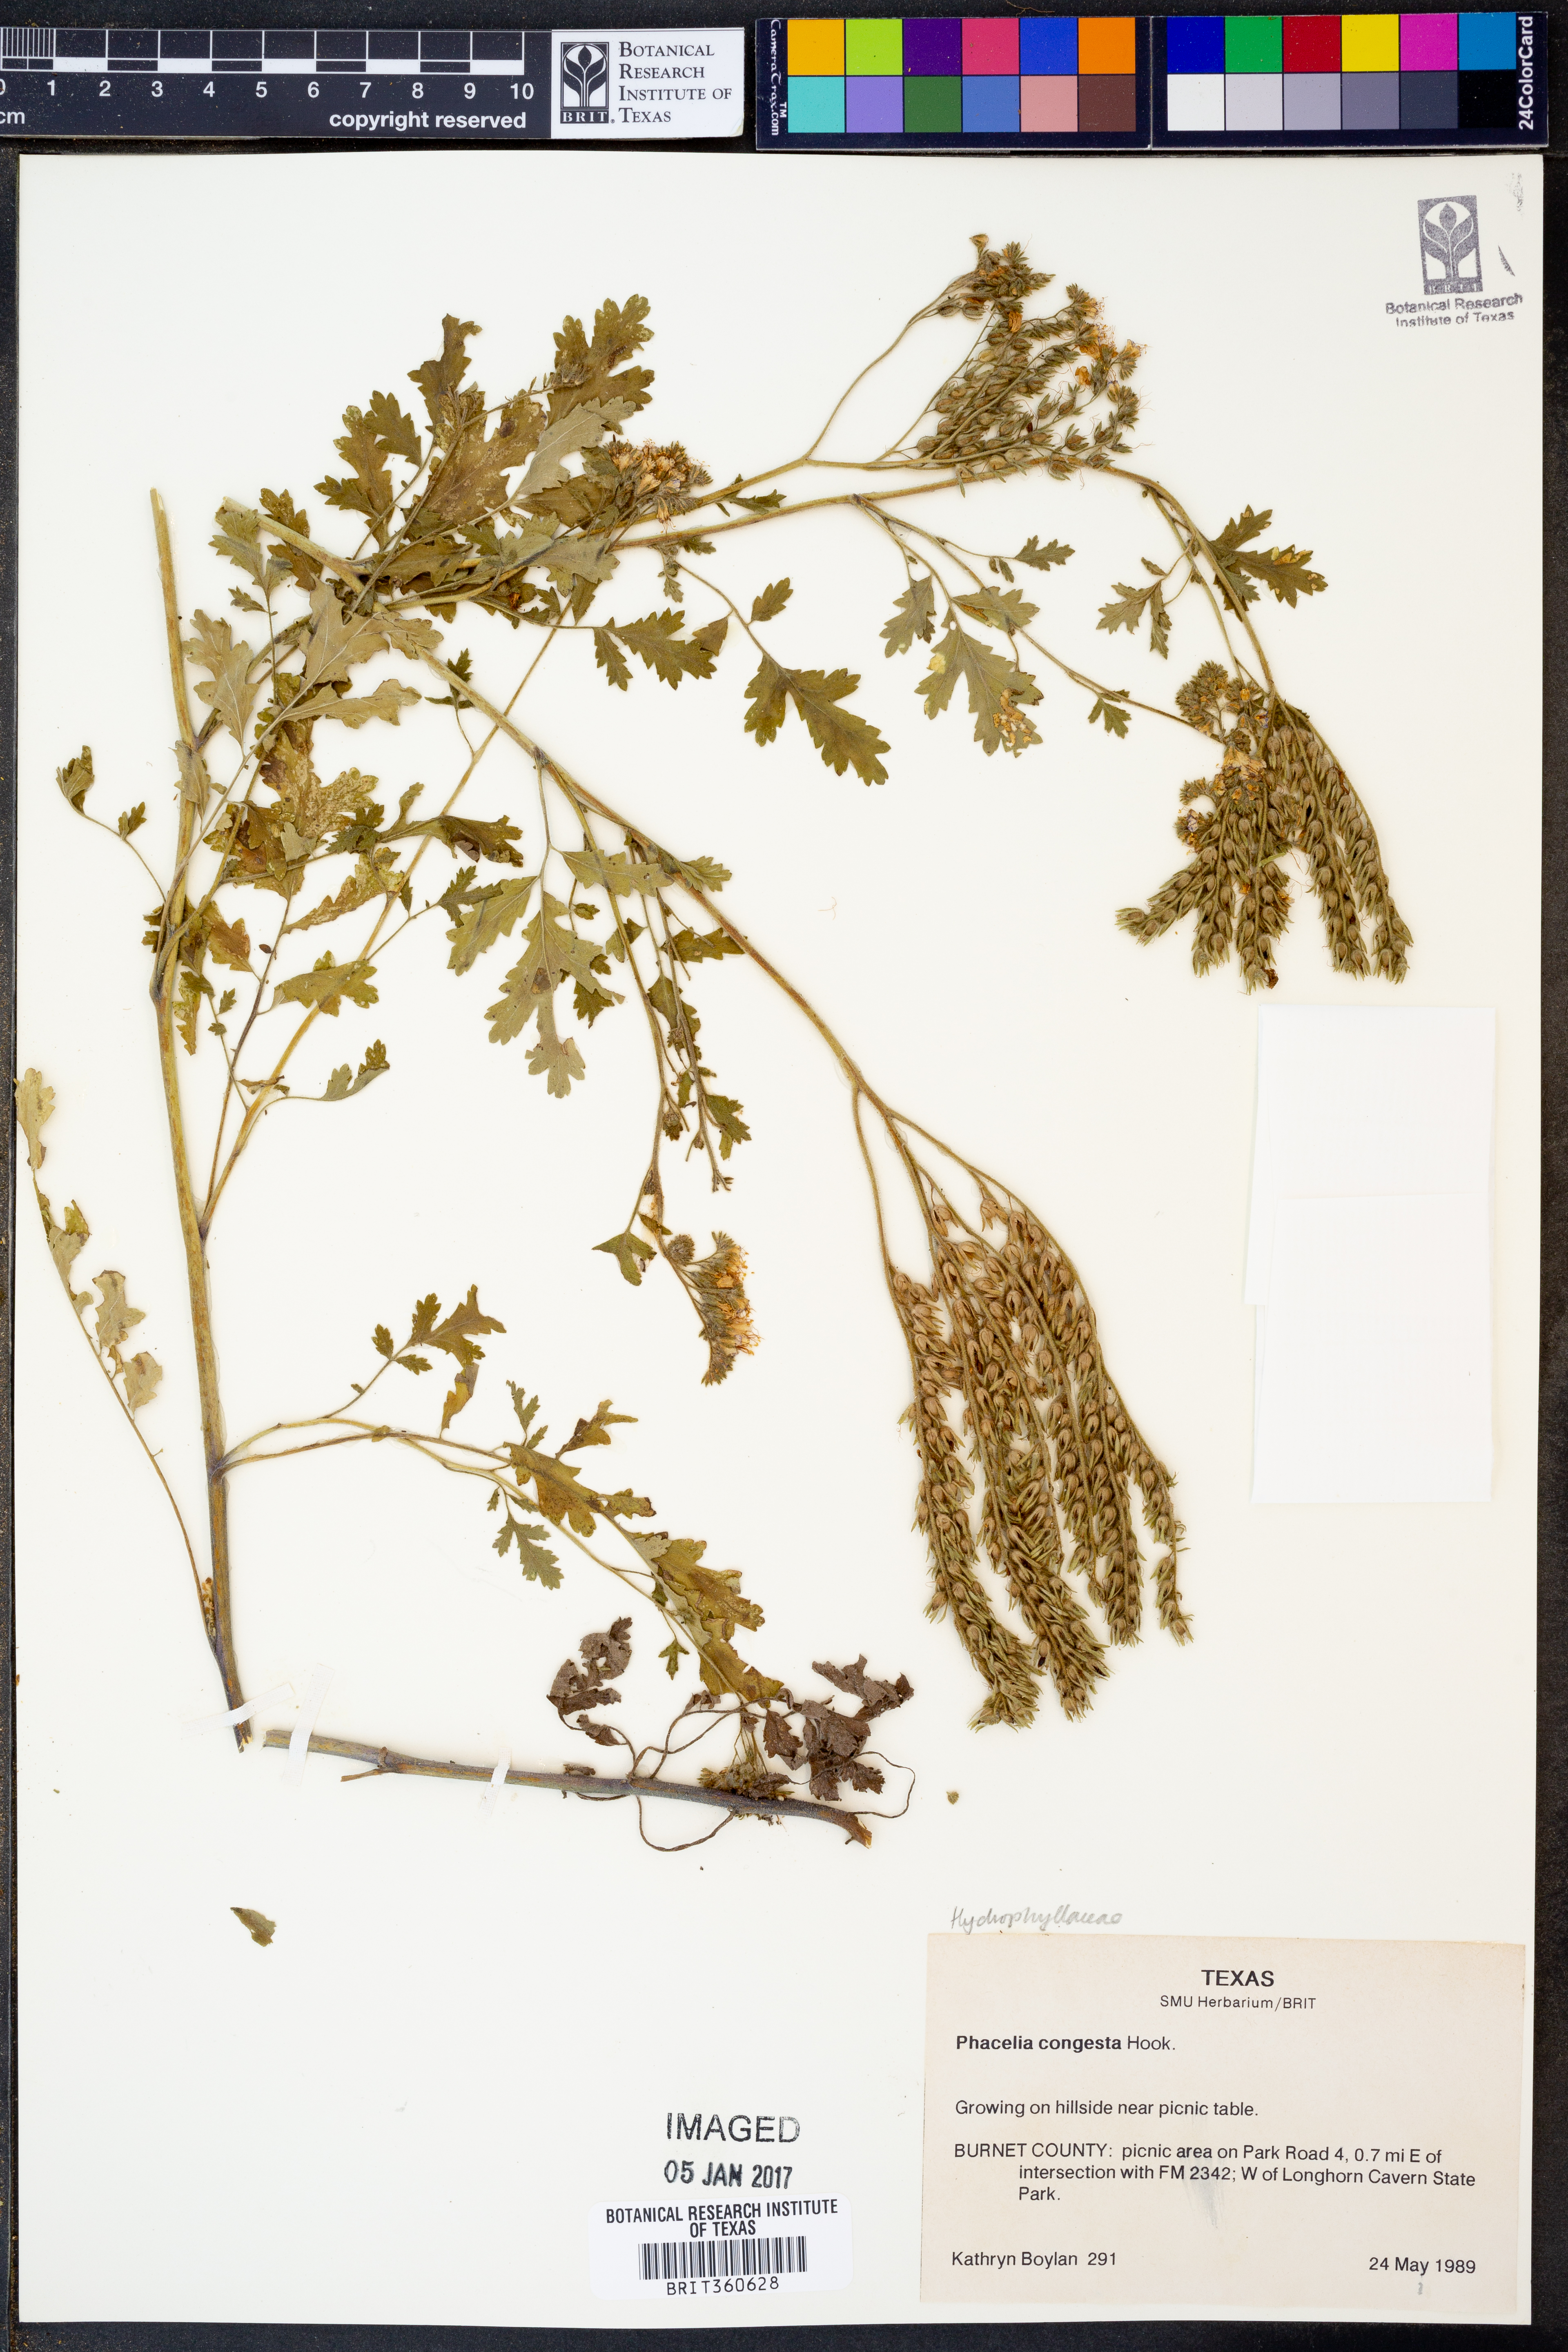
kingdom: Plantae
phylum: Tracheophyta
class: Magnoliopsida
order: Boraginales
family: Hydrophyllaceae
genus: Phacelia
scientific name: Phacelia congesta
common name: Blue curls
